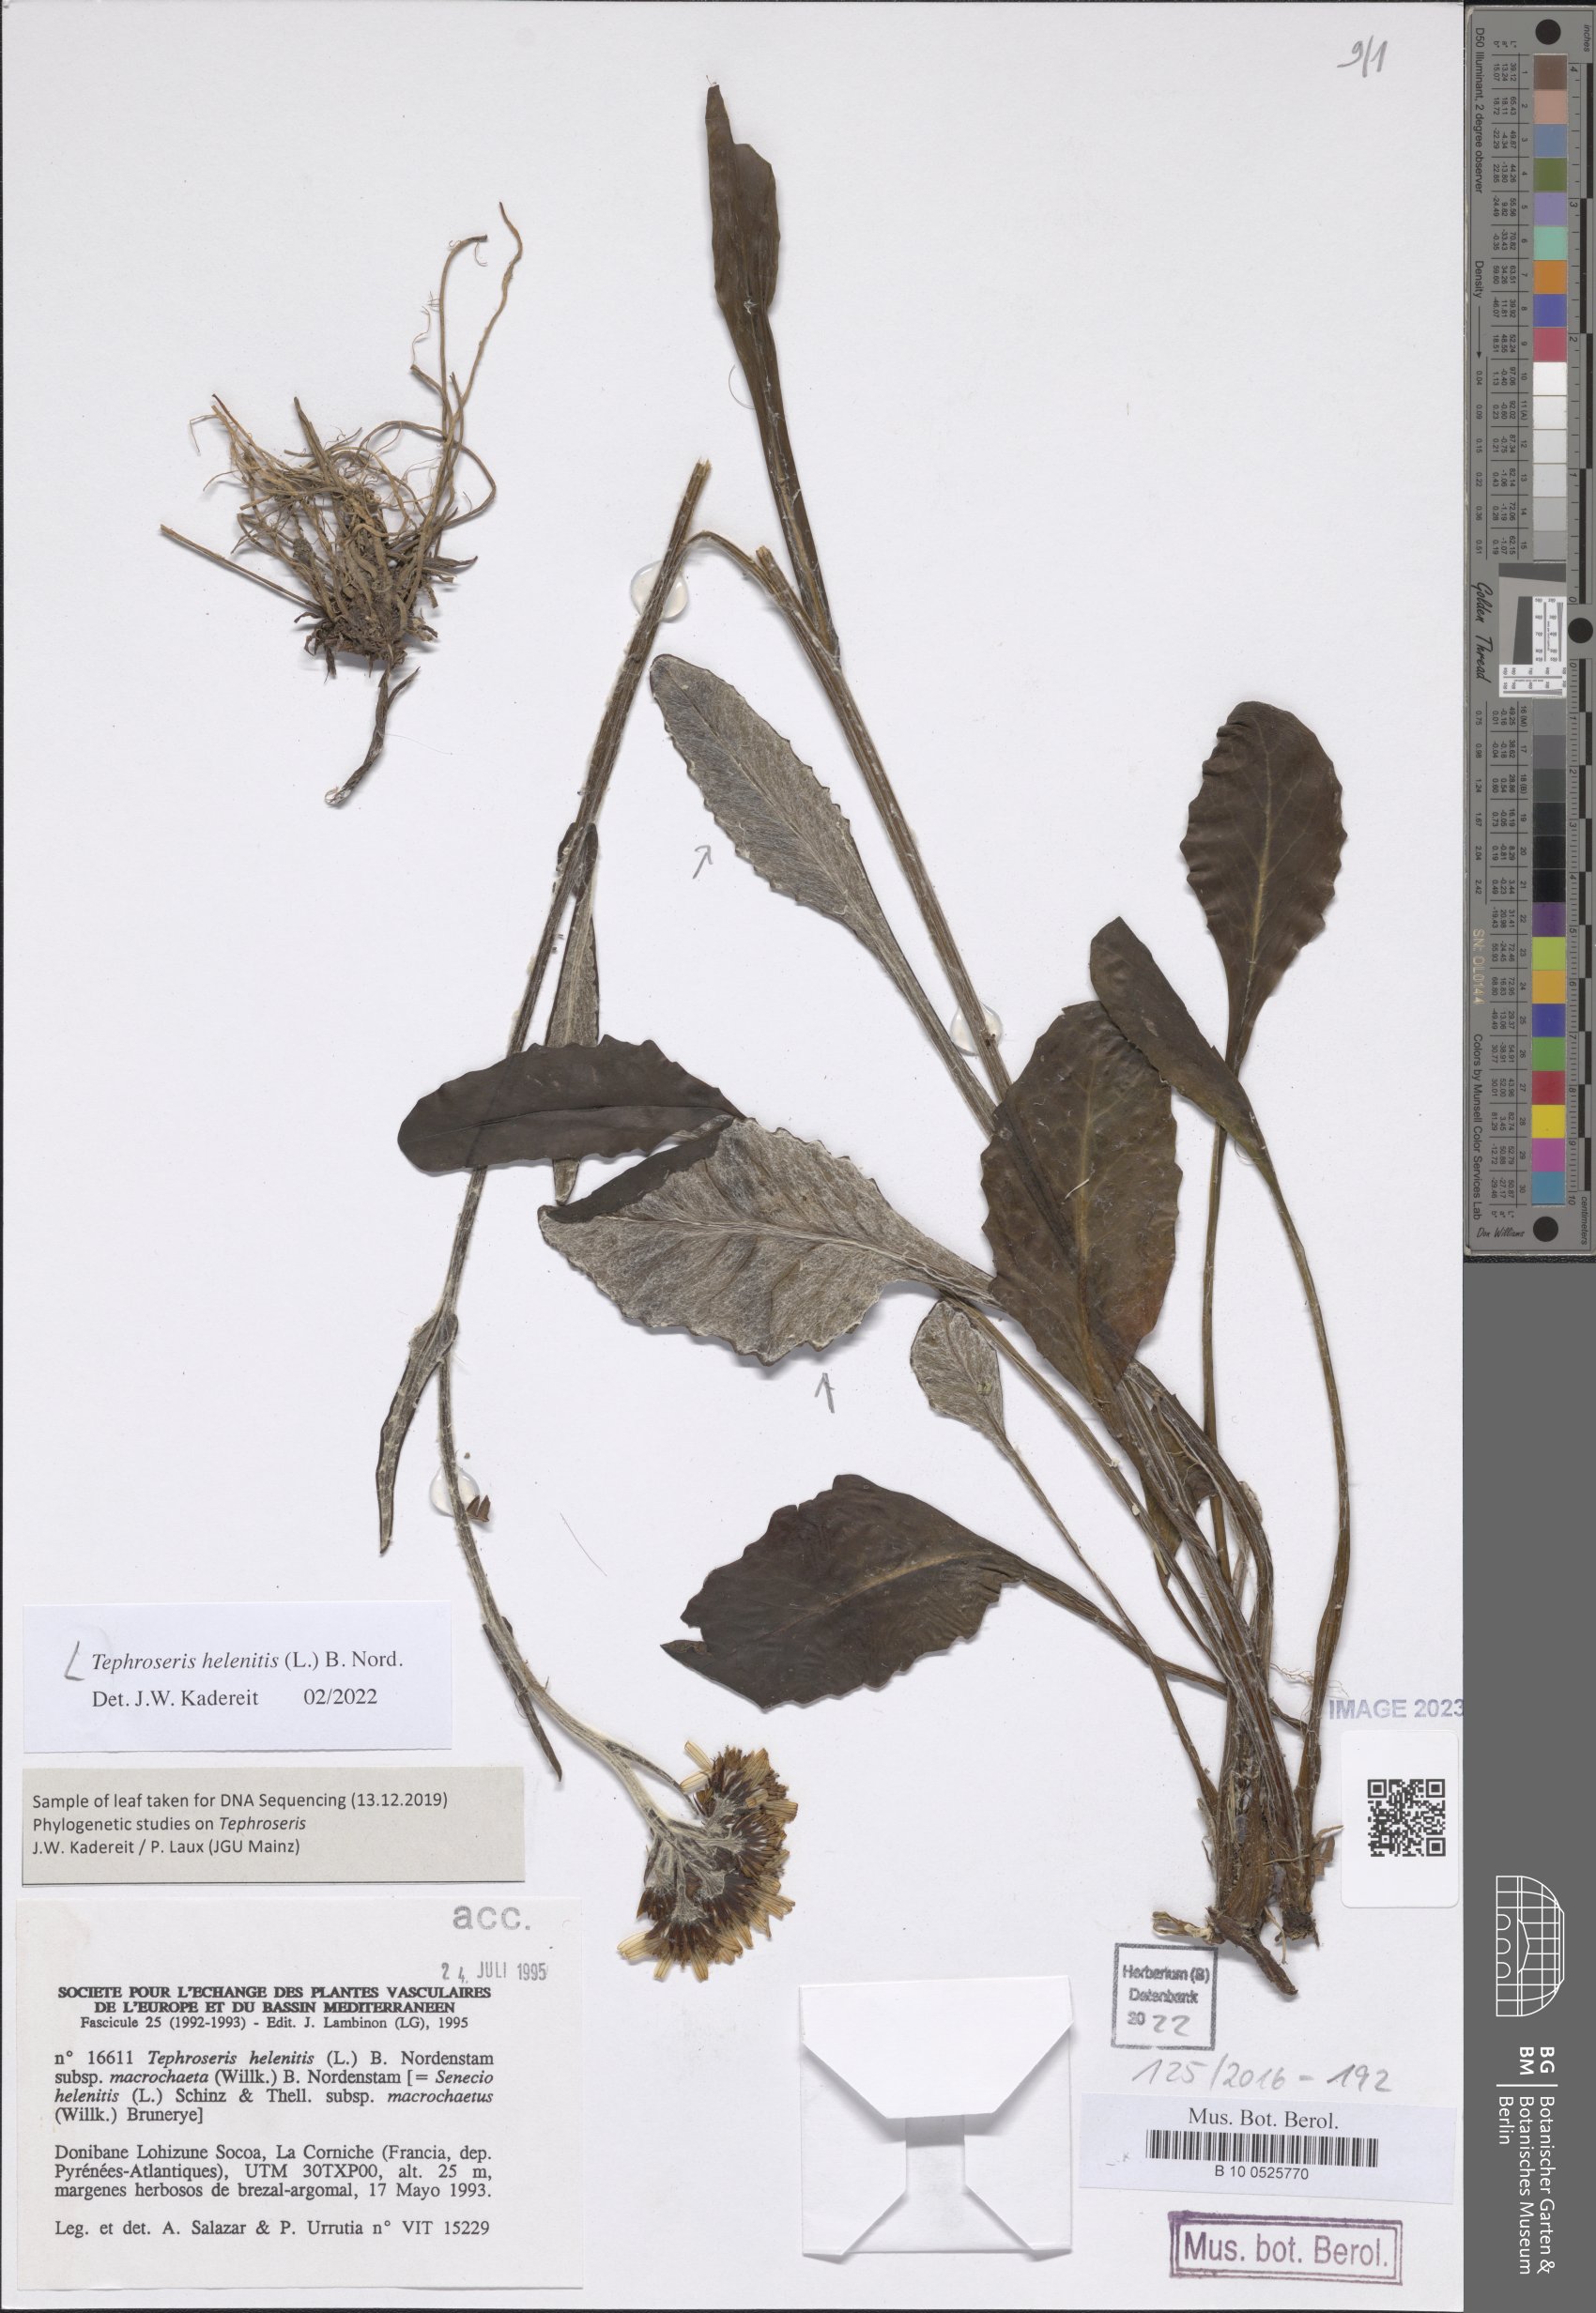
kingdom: Plantae
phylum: Tracheophyta
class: Magnoliopsida
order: Asterales
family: Asteraceae
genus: Tephroseris
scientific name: Tephroseris helenitis
